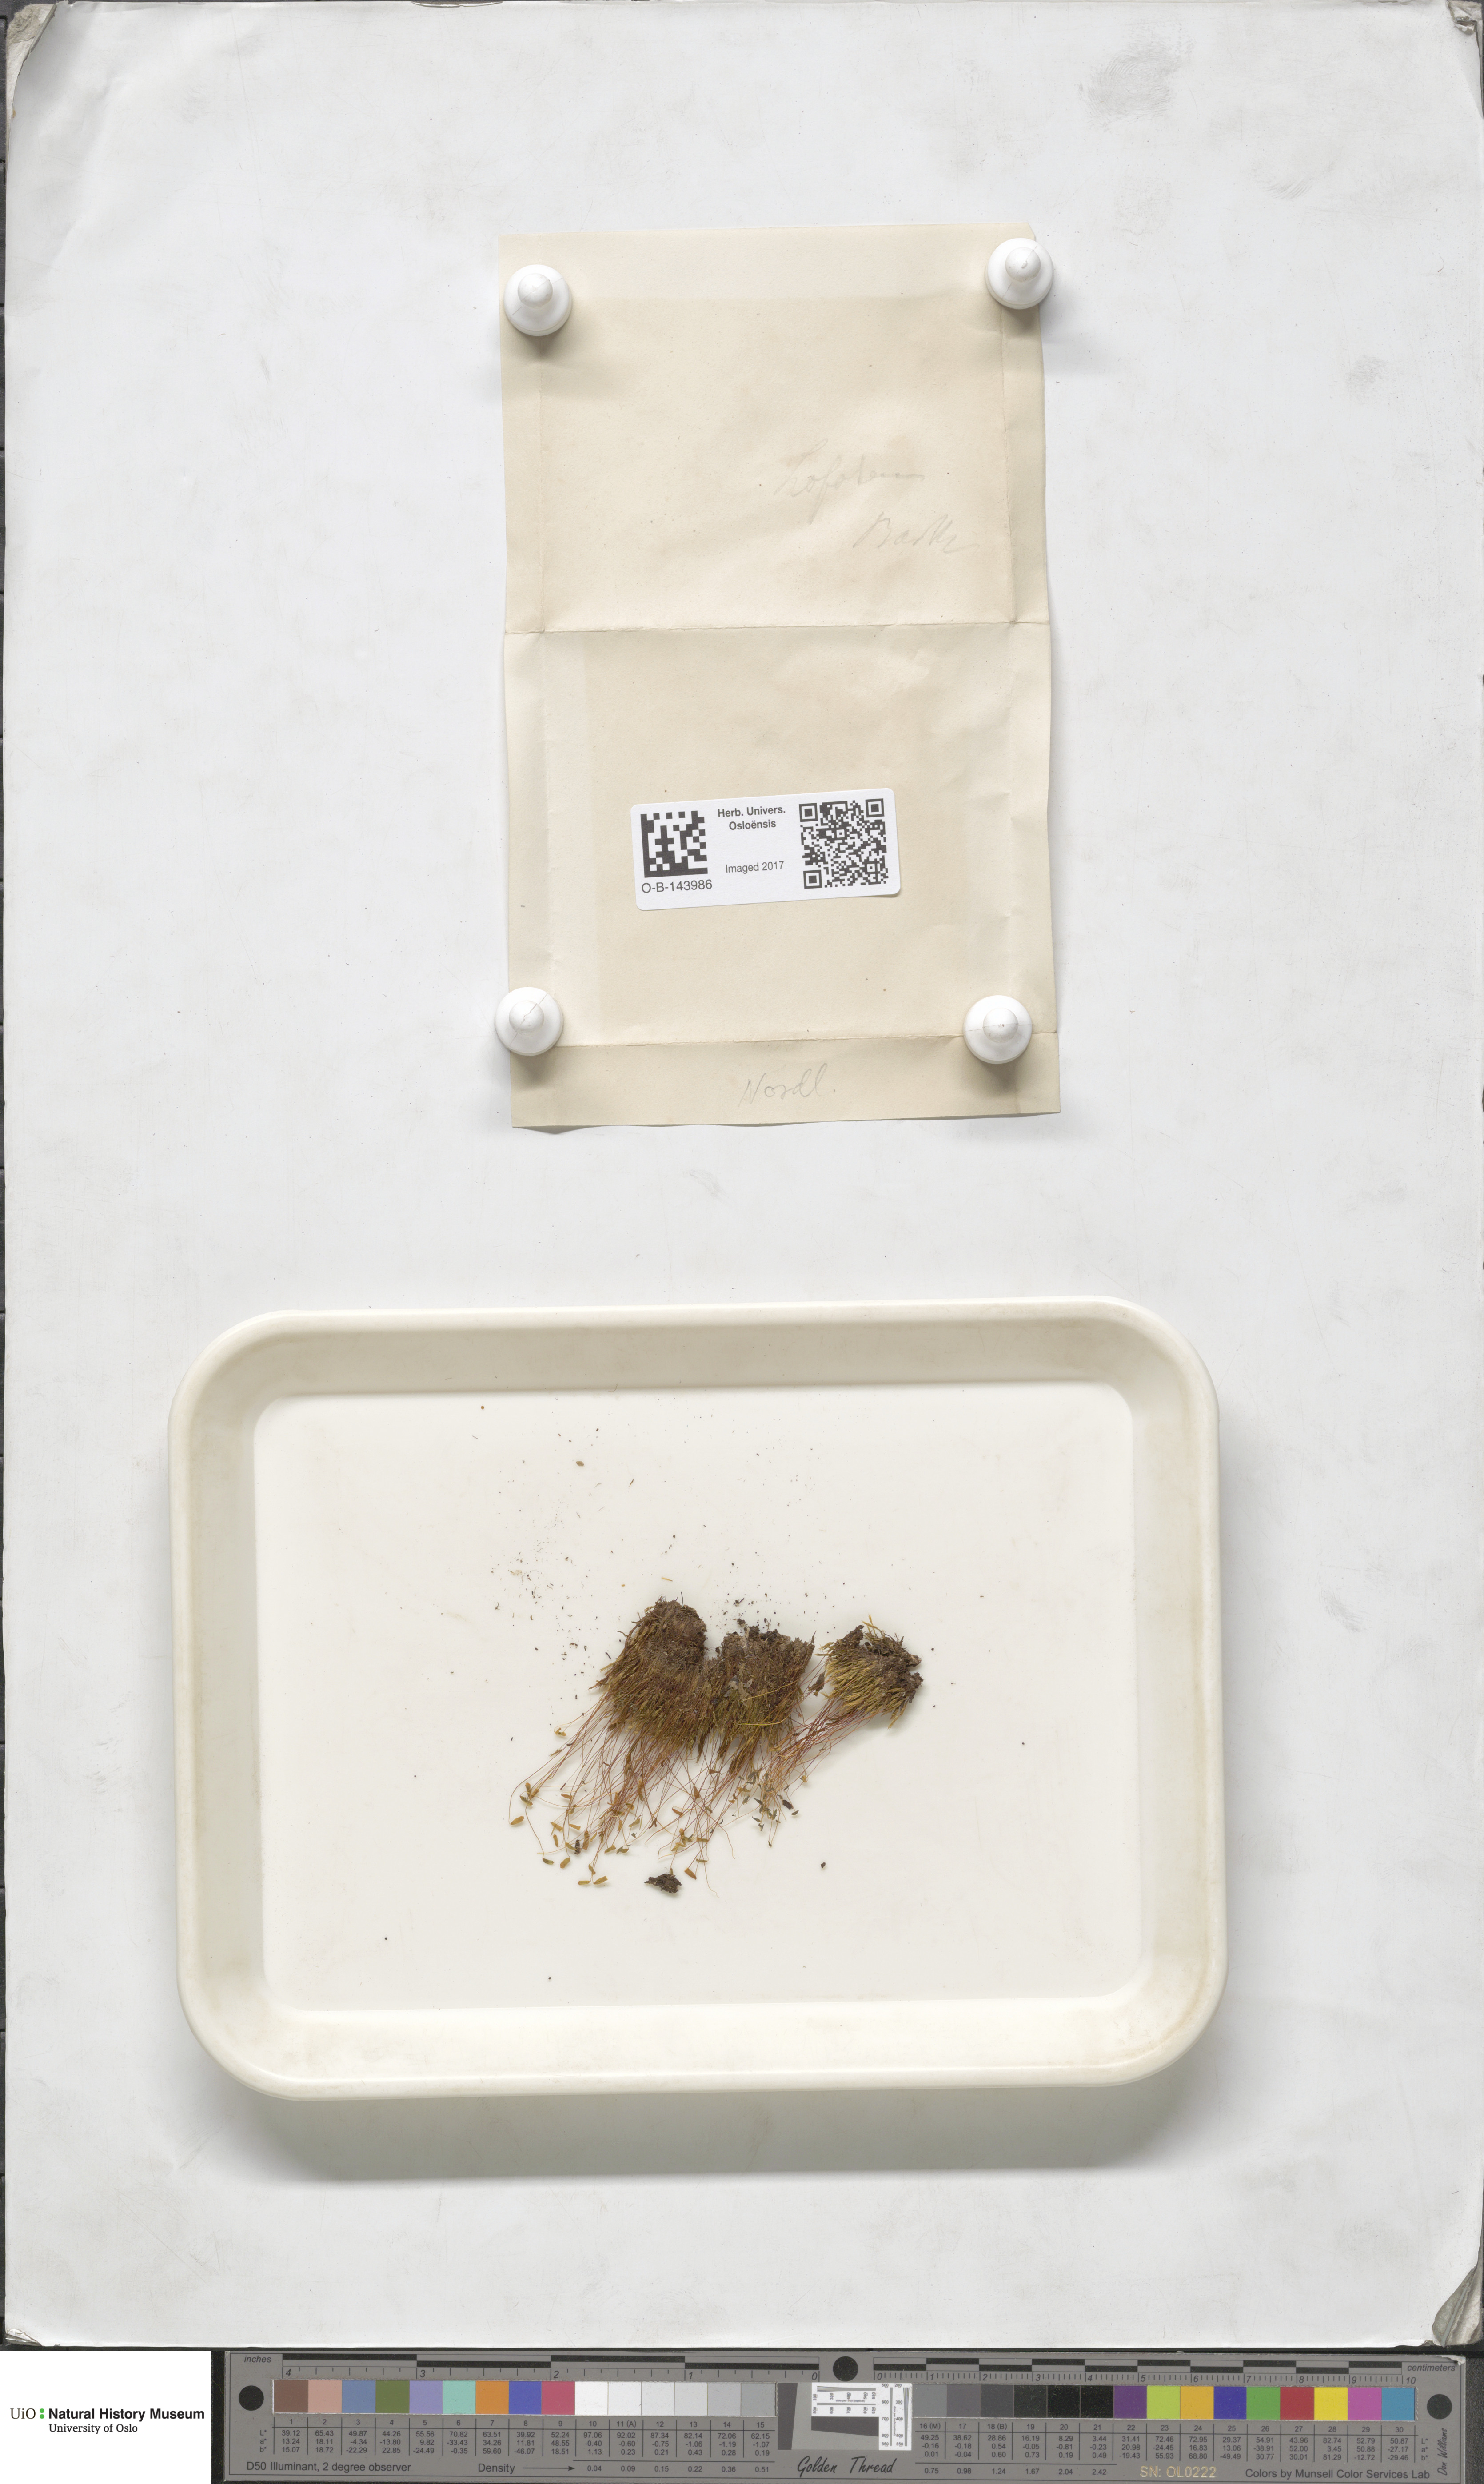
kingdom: Plantae
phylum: Bryophyta
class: Bryopsida
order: Bryales
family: Bryaceae
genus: Bryum
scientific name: Bryum
